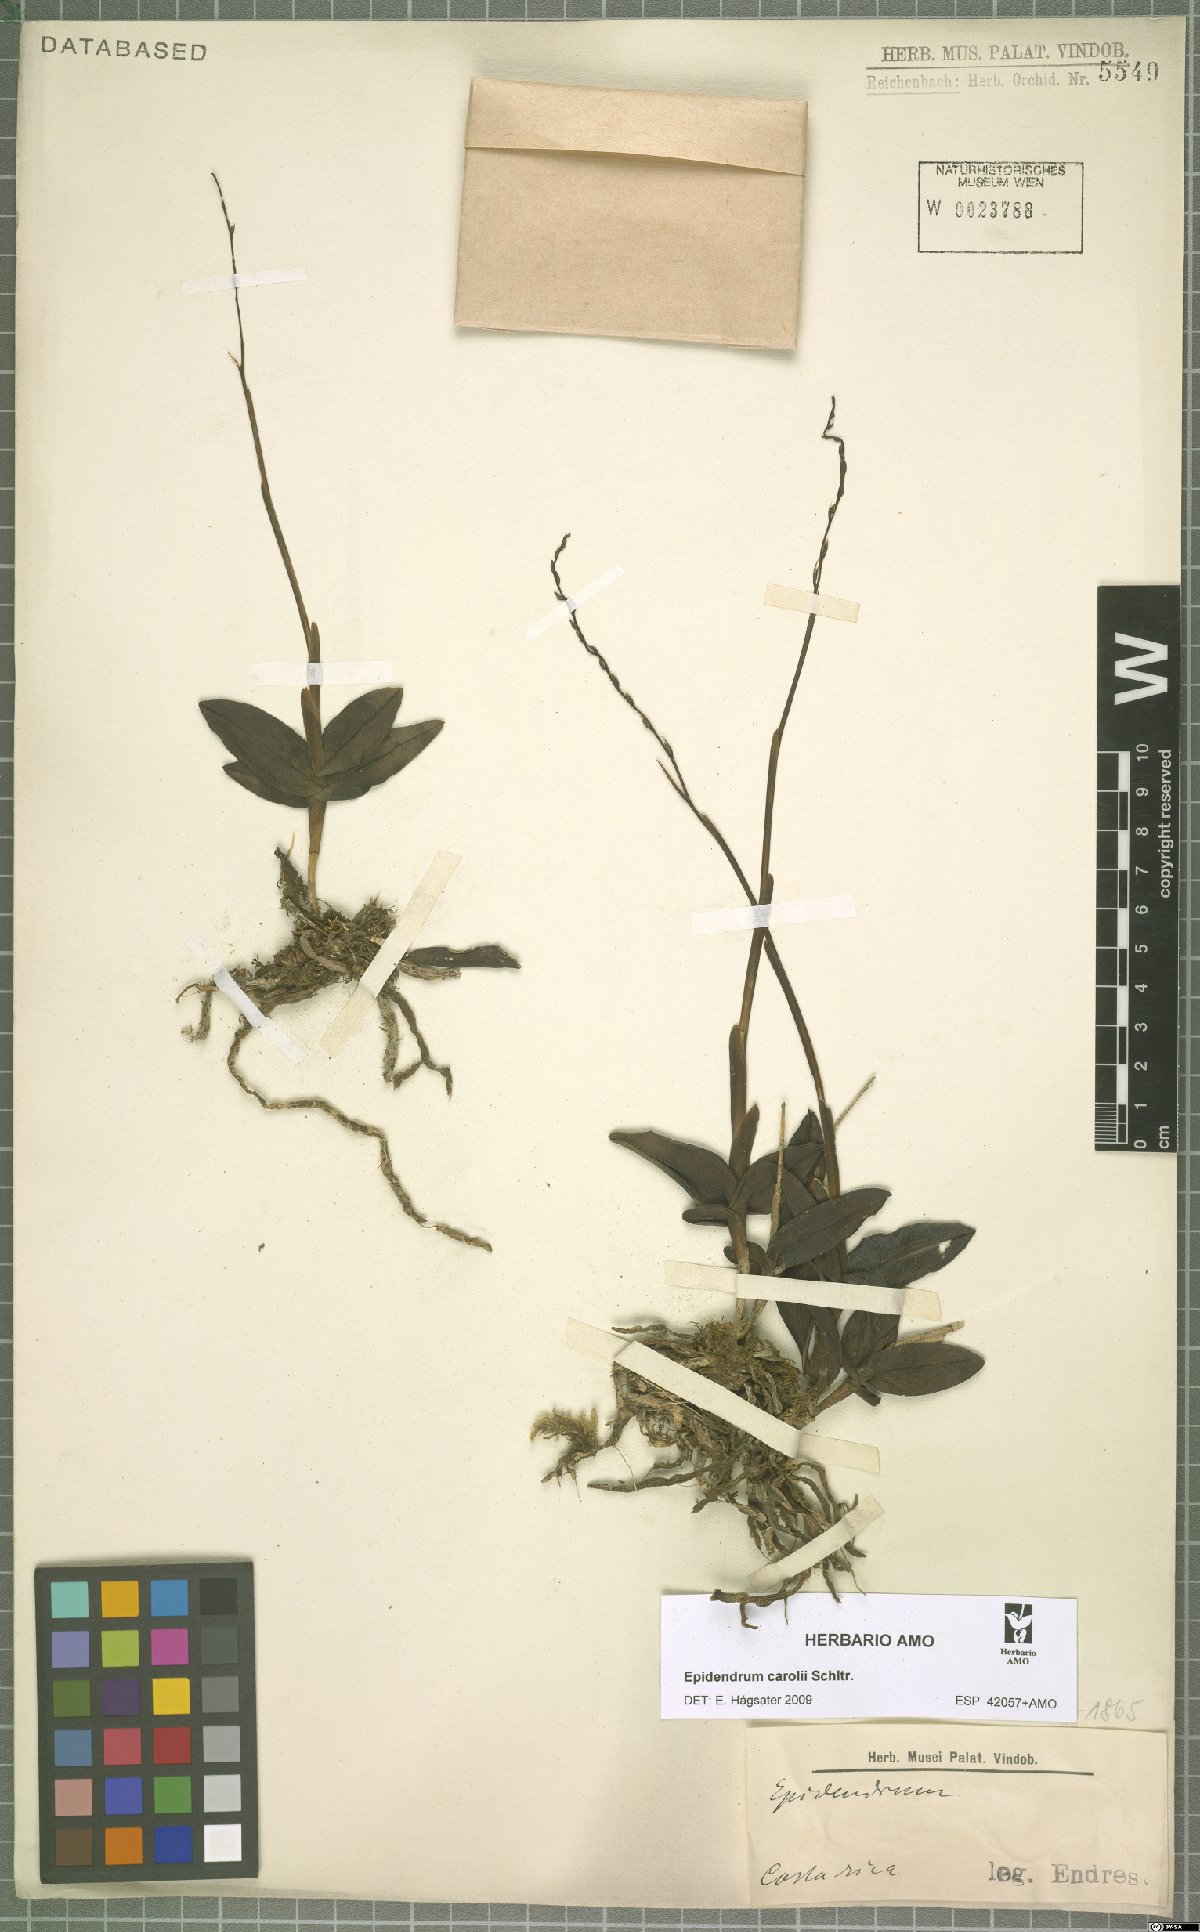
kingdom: Plantae
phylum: Tracheophyta
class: Liliopsida
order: Asparagales
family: Orchidaceae
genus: Epidendrum
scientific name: Epidendrum caroli
